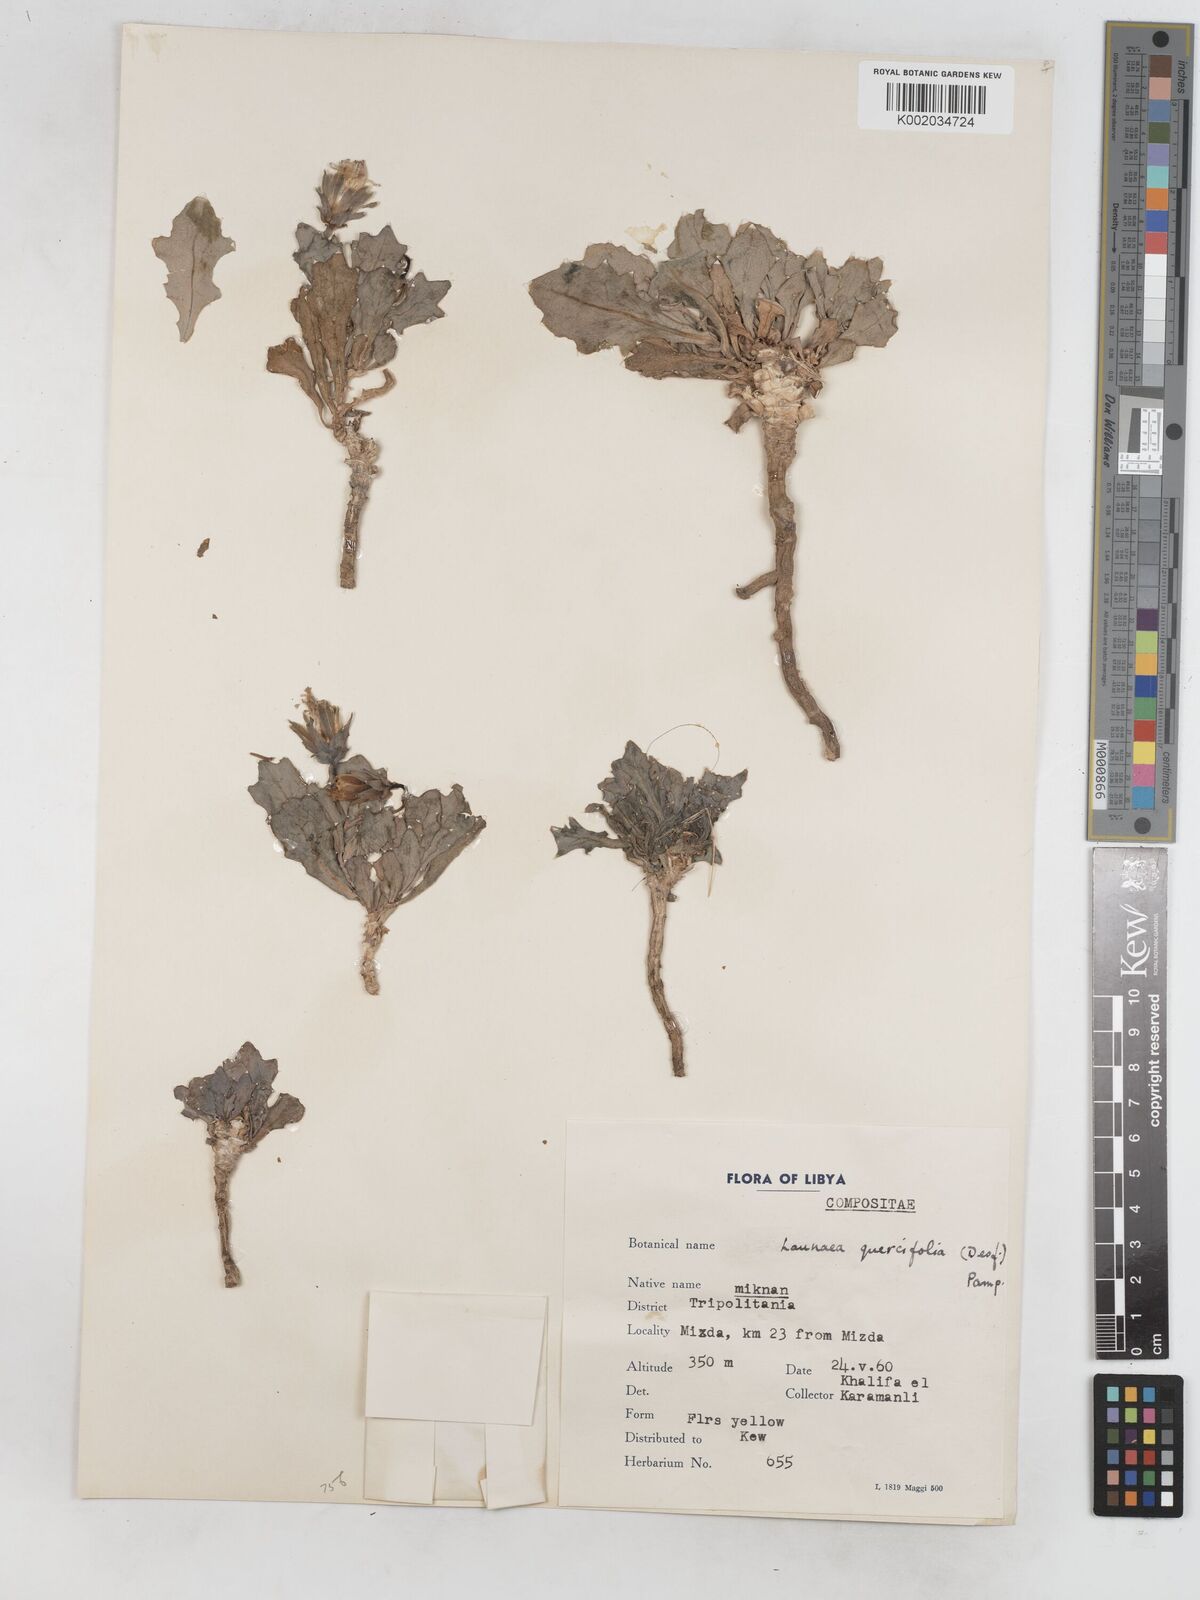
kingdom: Plantae
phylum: Tracheophyta
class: Magnoliopsida
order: Asterales
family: Asteraceae
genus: Launaea
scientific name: Launaea quercifolia
